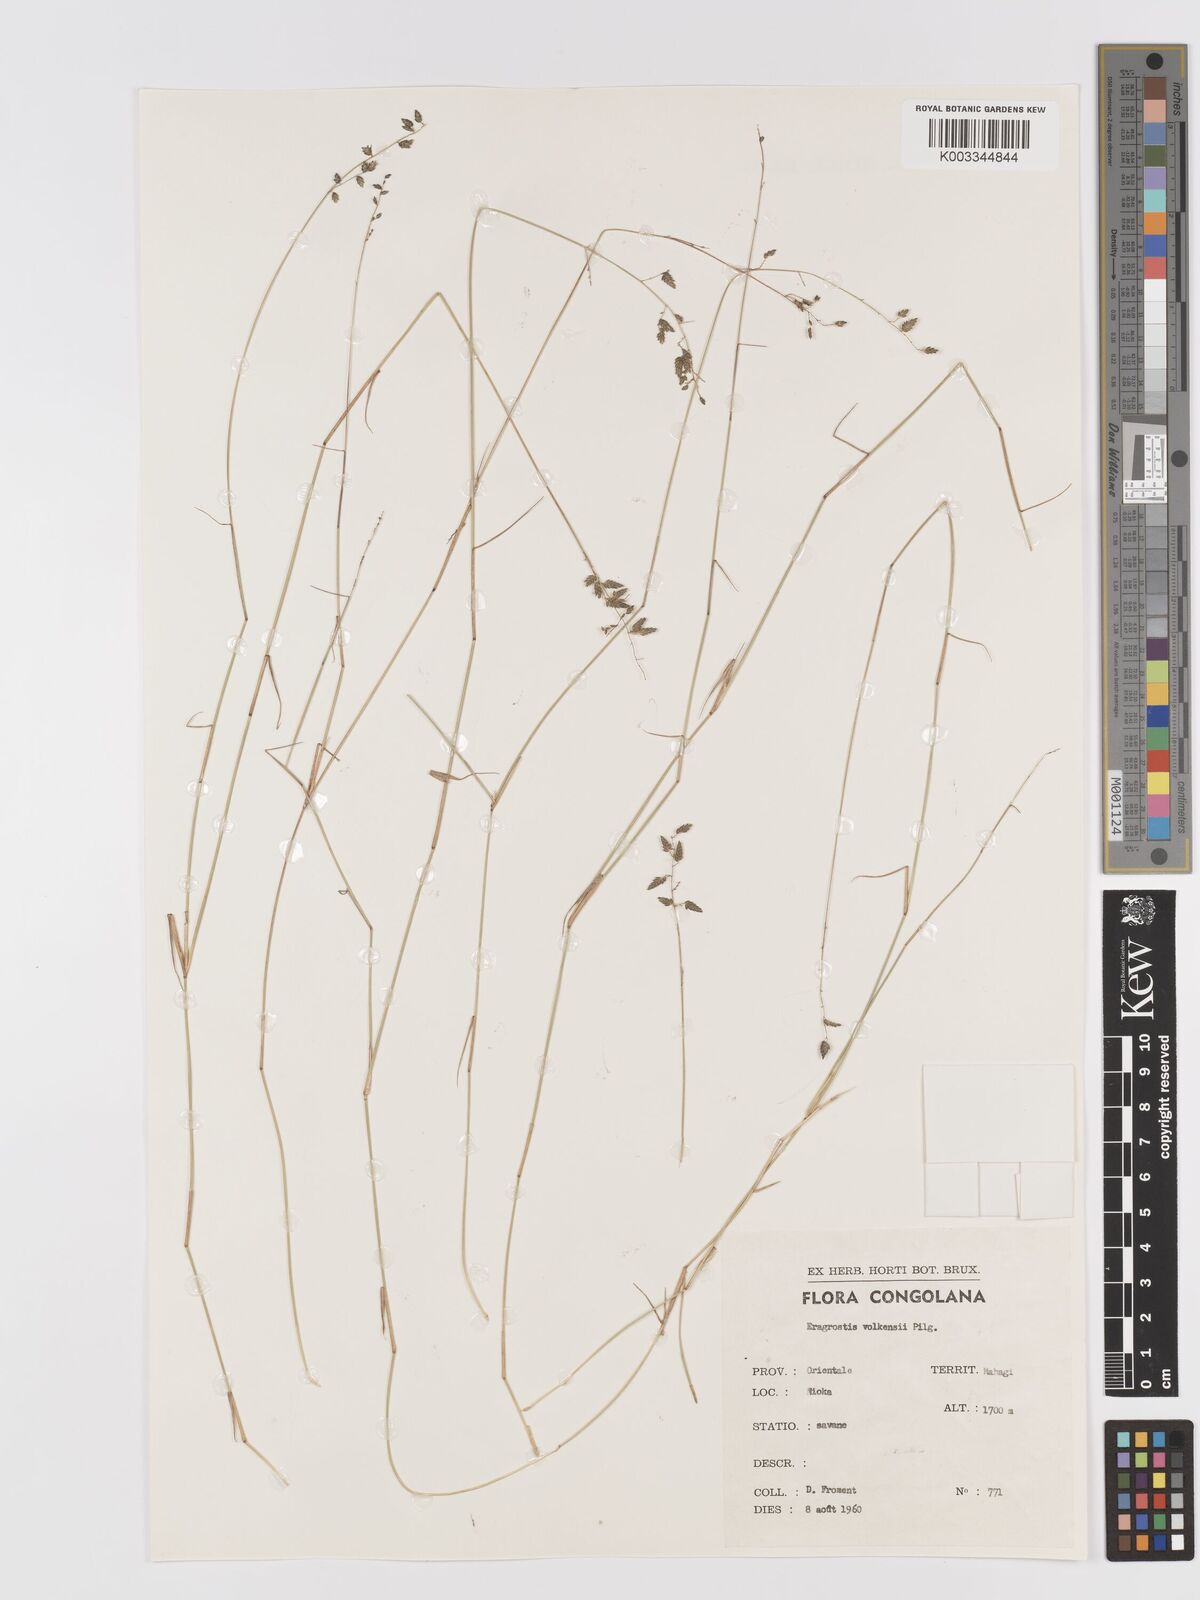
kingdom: Plantae
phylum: Tracheophyta
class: Liliopsida
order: Poales
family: Poaceae
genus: Eragrostis
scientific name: Eragrostis volkensii
